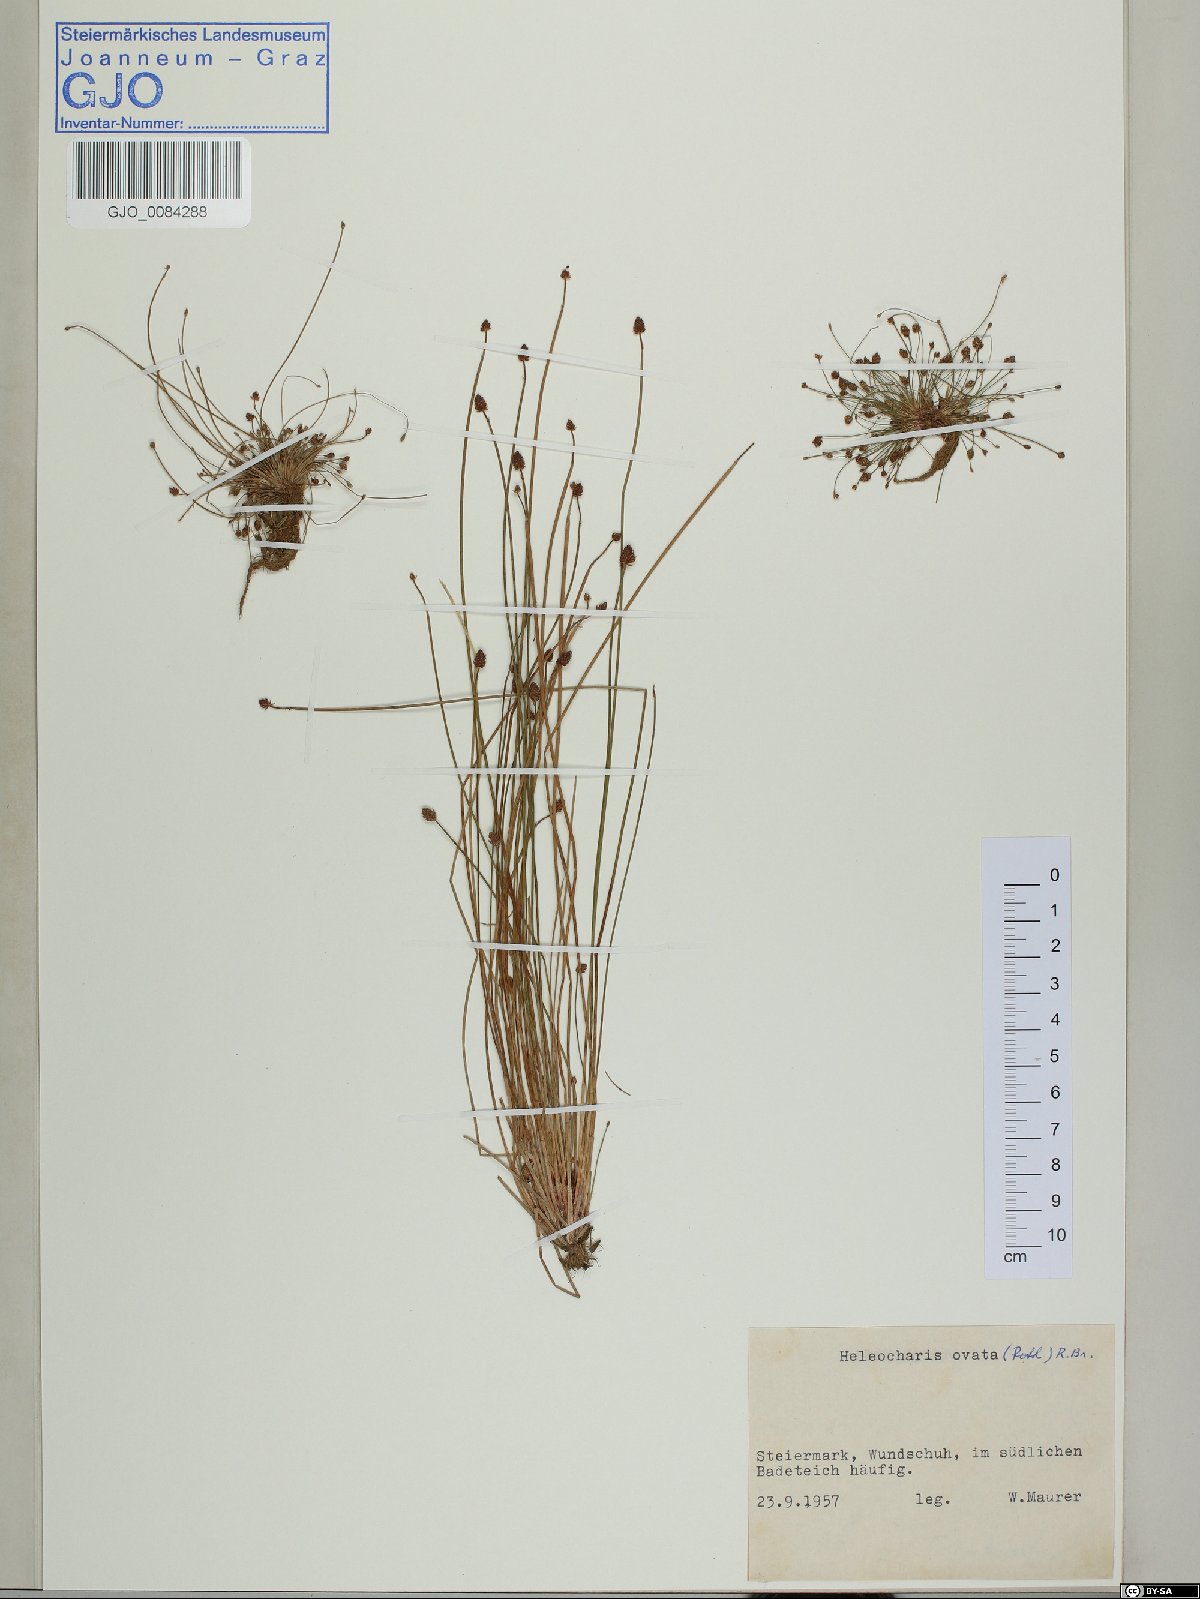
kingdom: Plantae
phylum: Tracheophyta
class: Liliopsida
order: Poales
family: Cyperaceae
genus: Eleocharis
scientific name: Eleocharis ovata
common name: Oval spike-rush
